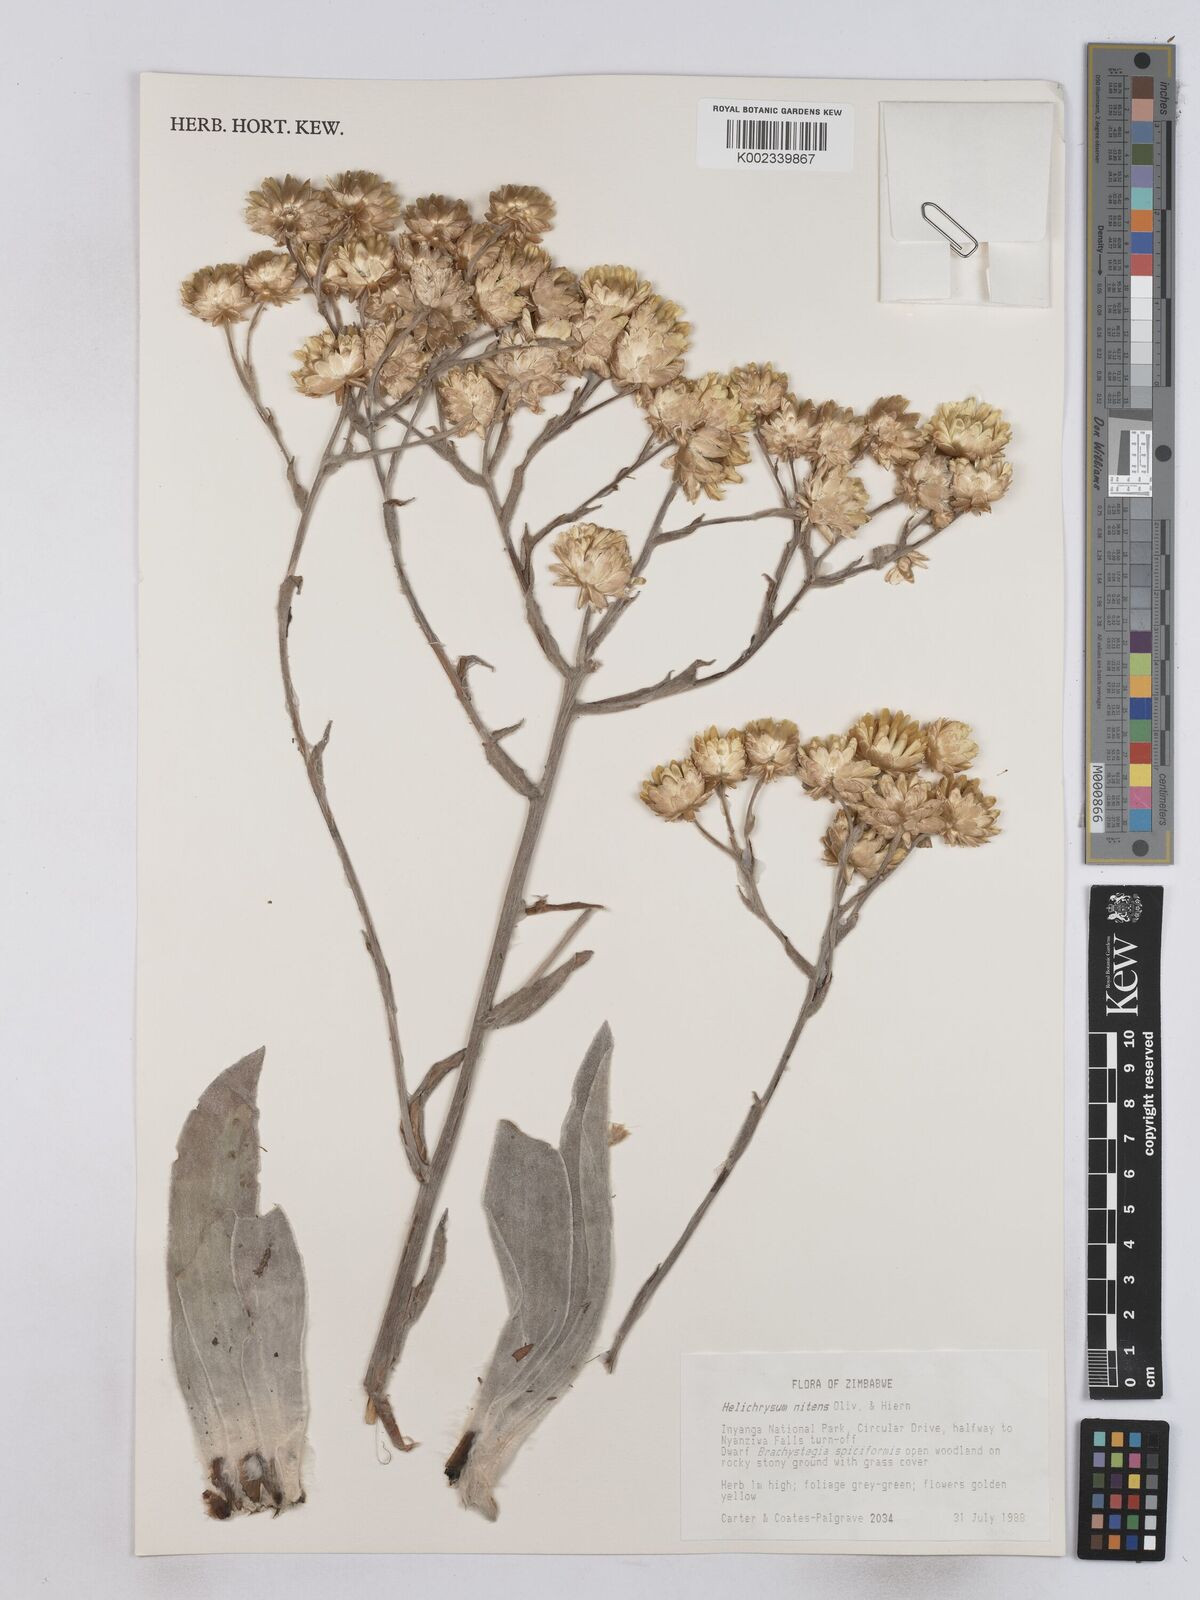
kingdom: Plantae
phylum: Tracheophyta
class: Magnoliopsida
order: Asterales
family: Asteraceae
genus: Helichrysum
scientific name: Helichrysum nitens
